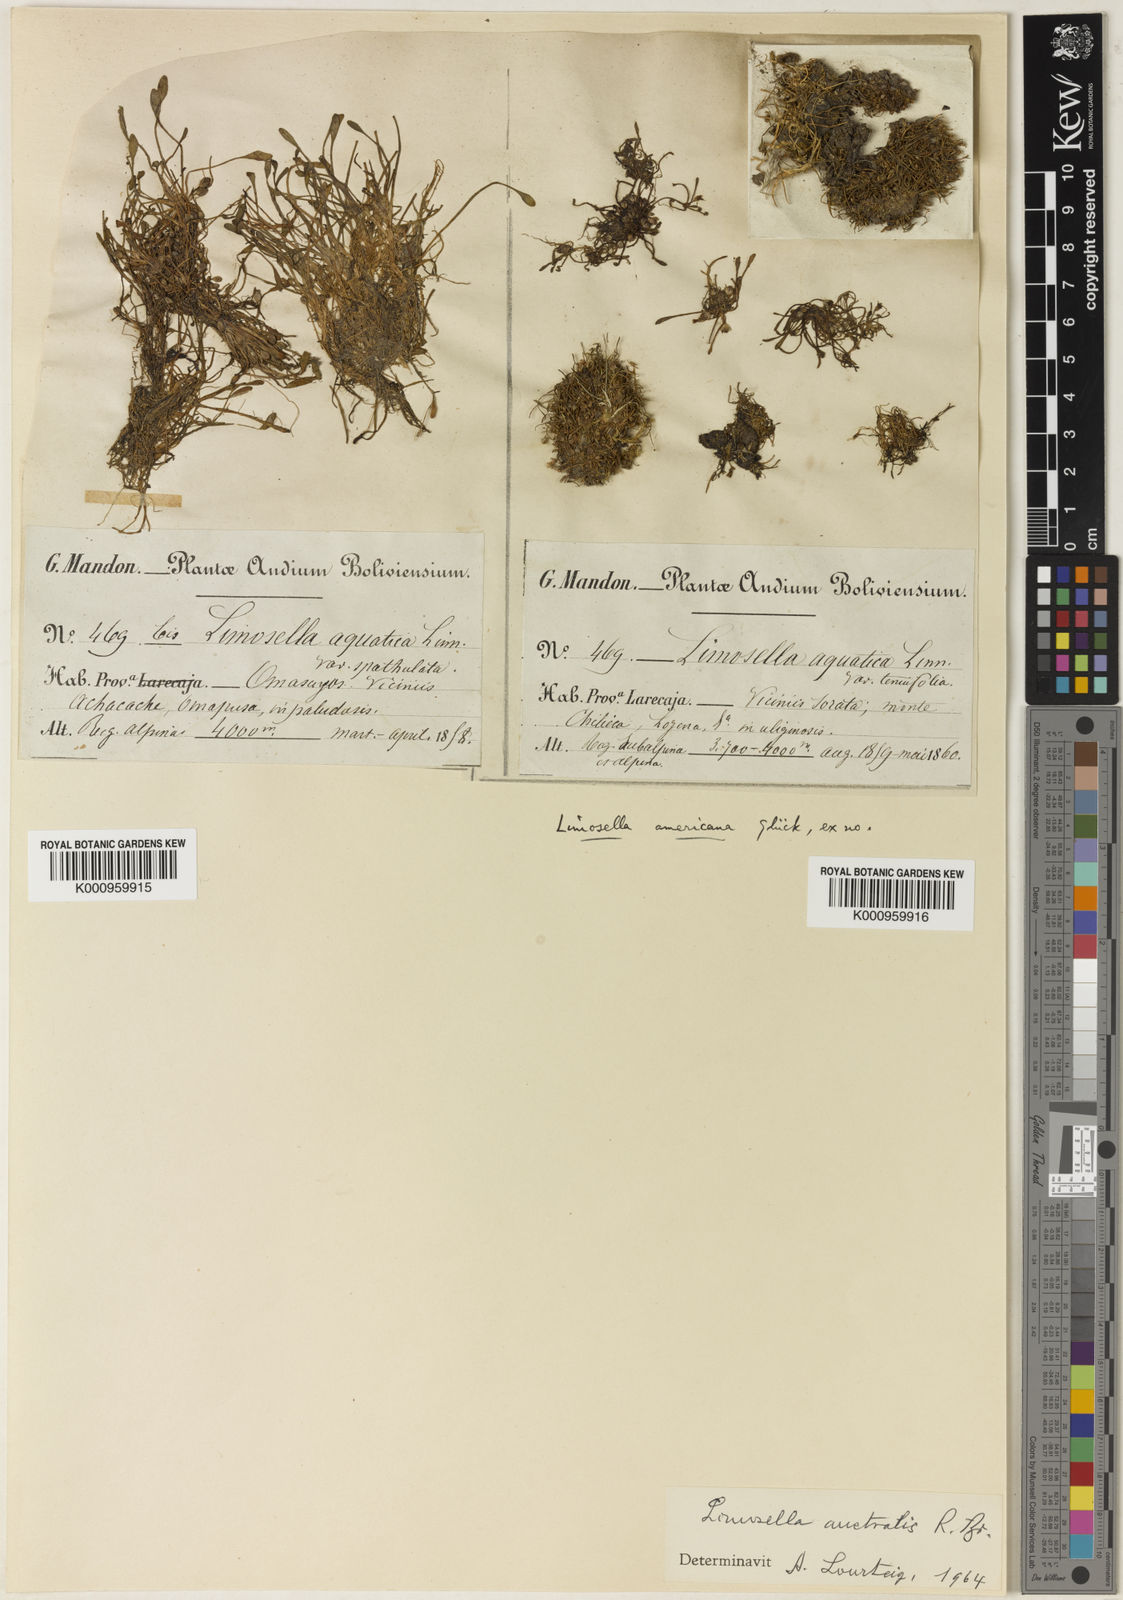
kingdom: Plantae
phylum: Tracheophyta
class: Magnoliopsida
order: Lamiales
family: Scrophulariaceae
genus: Limosella
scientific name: Limosella australis
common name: Welsh mudwort
